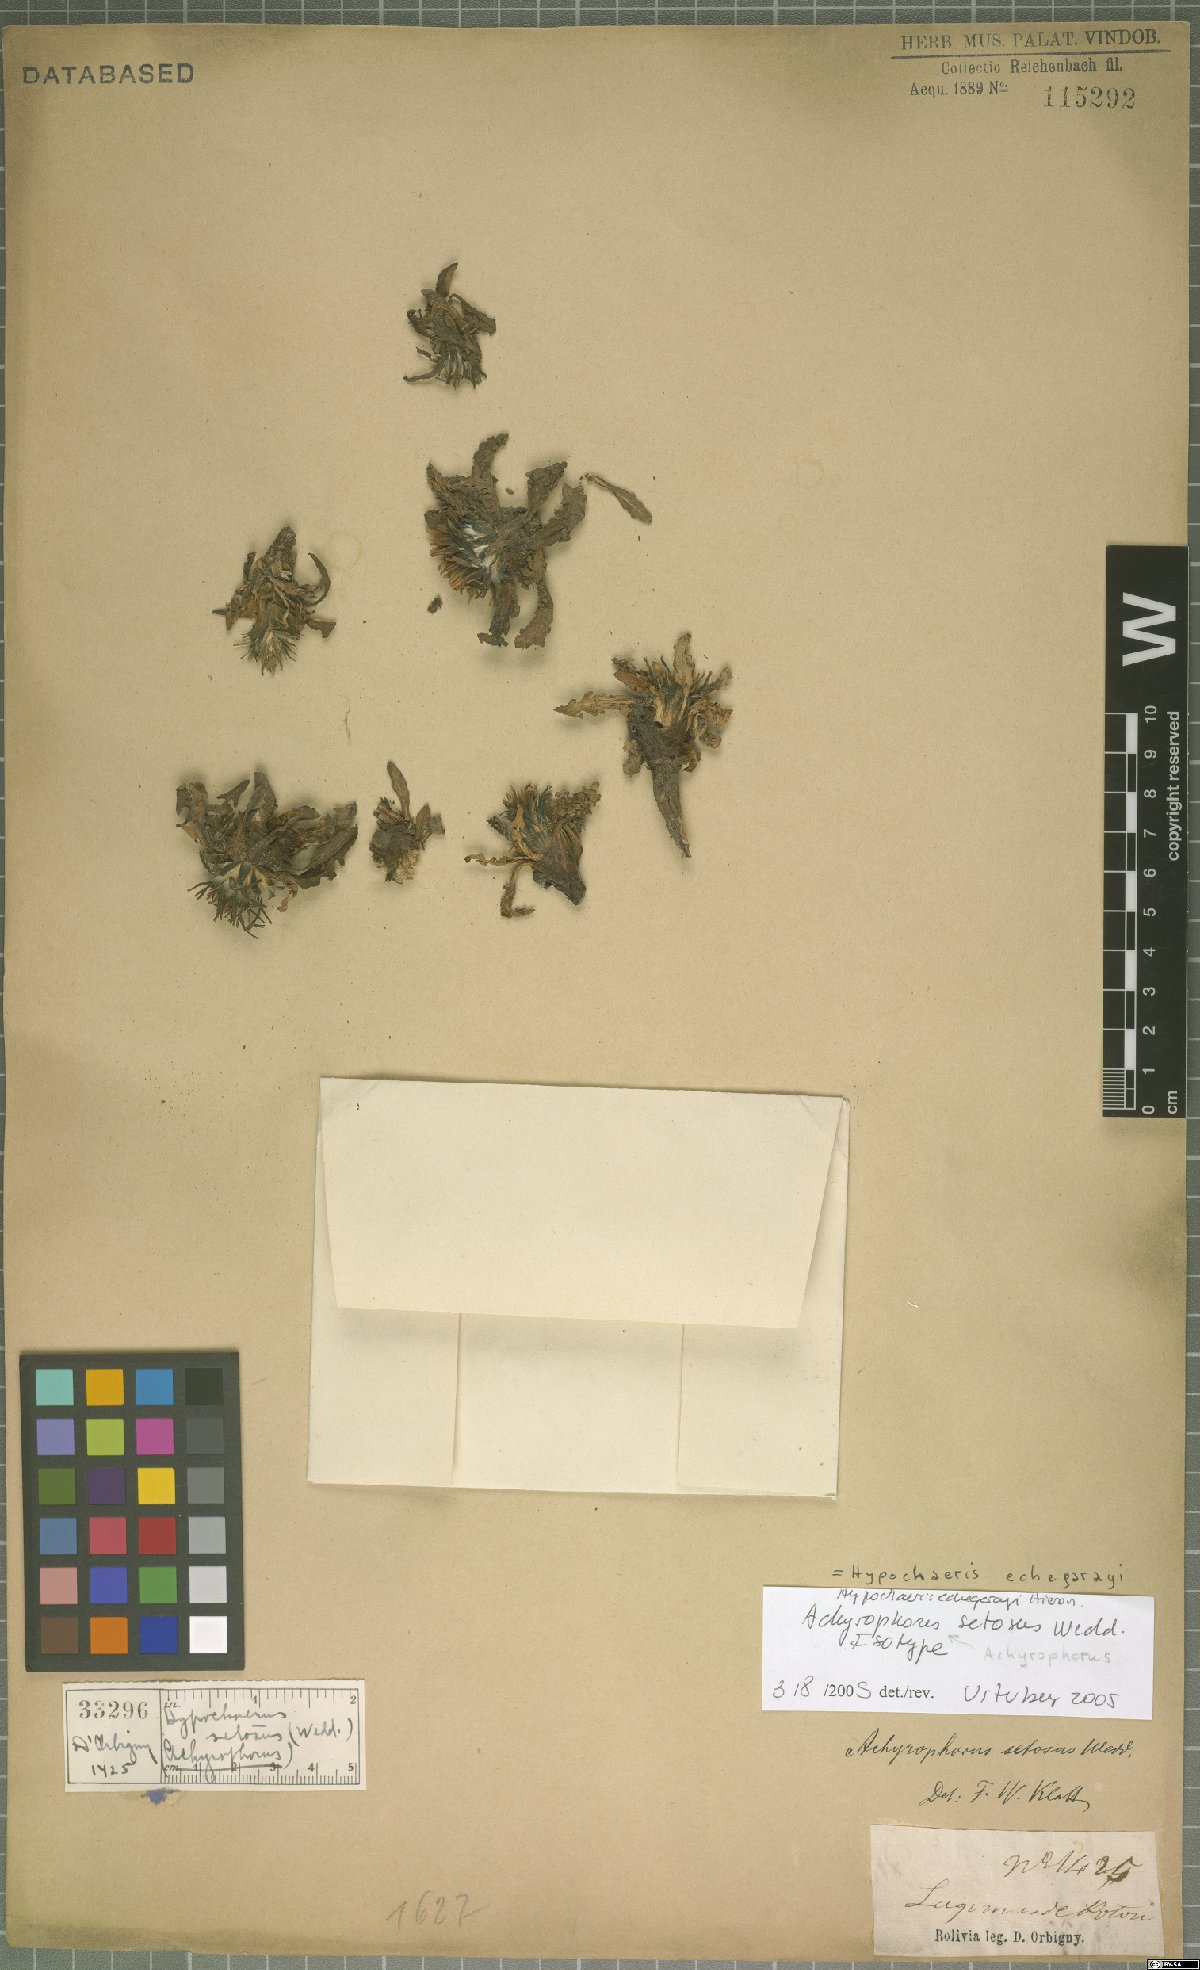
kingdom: Plantae
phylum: Tracheophyta
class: Magnoliopsida
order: Asterales
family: Asteraceae
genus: Hypochaeris
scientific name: Hypochaeris echegarayi
